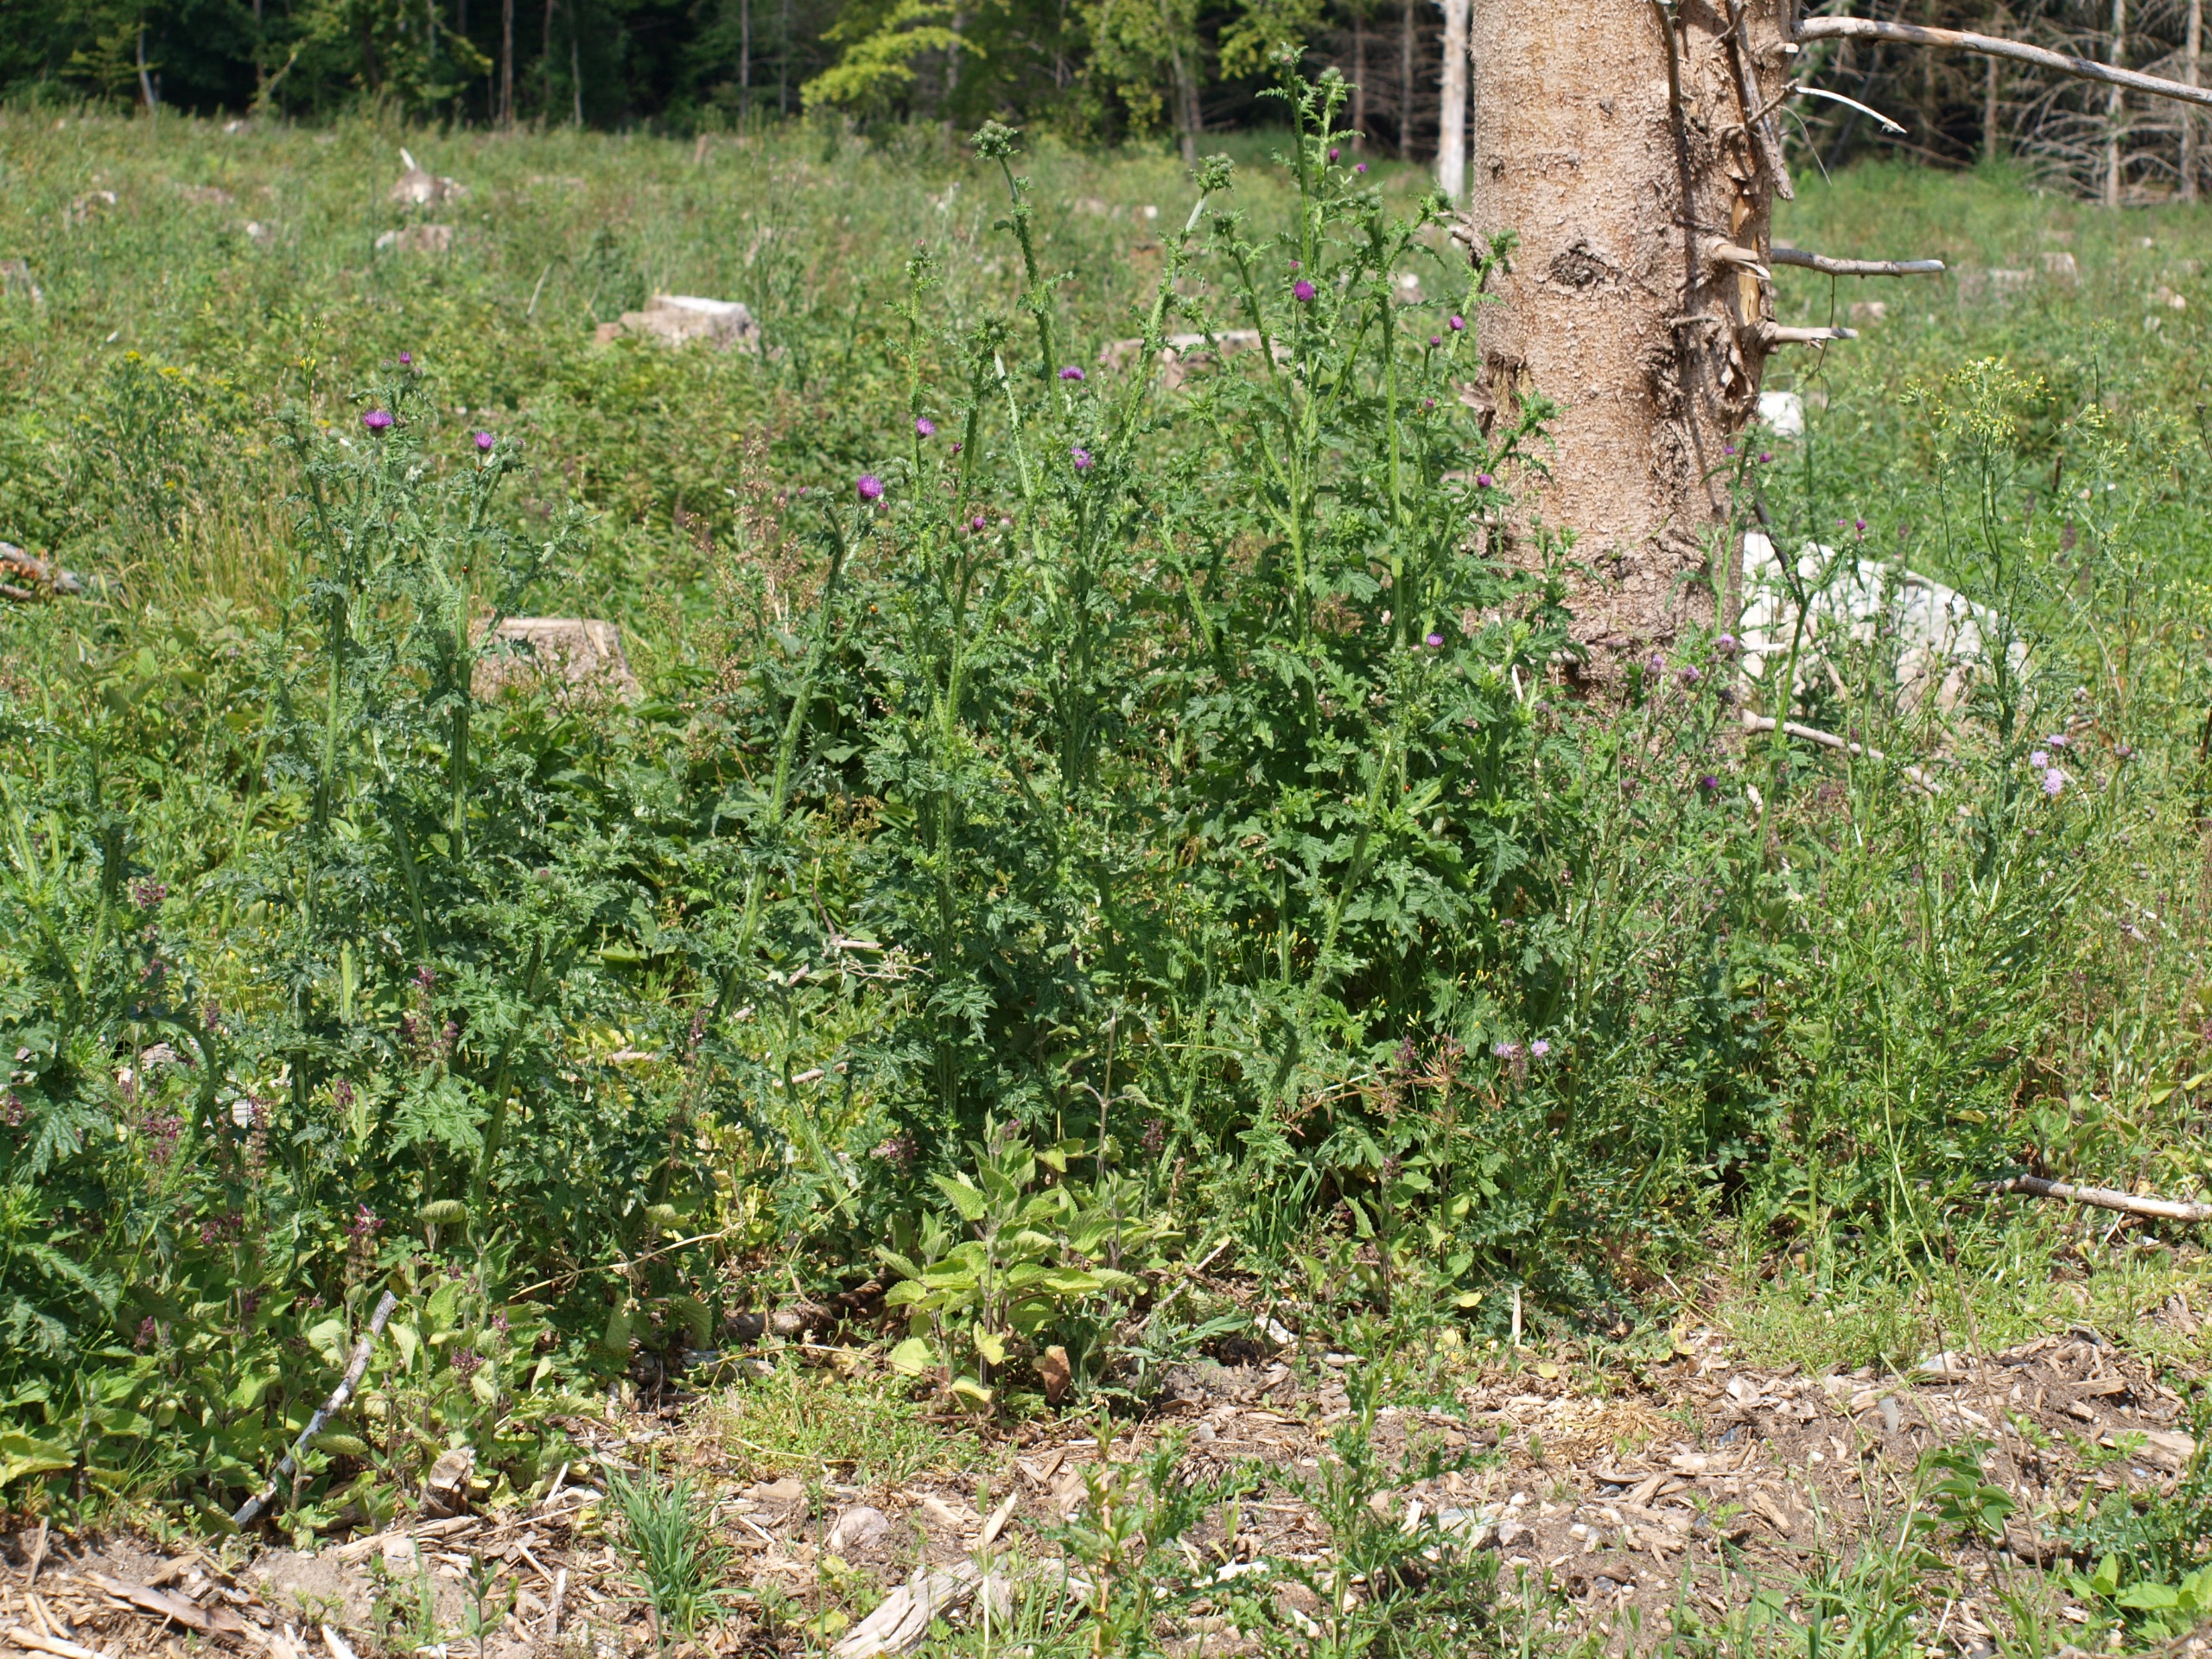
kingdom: Plantae
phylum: Tracheophyta
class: Magnoliopsida
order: Asterales
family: Asteraceae
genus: Carduus
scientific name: Carduus crispus
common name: Kruset tidsel
